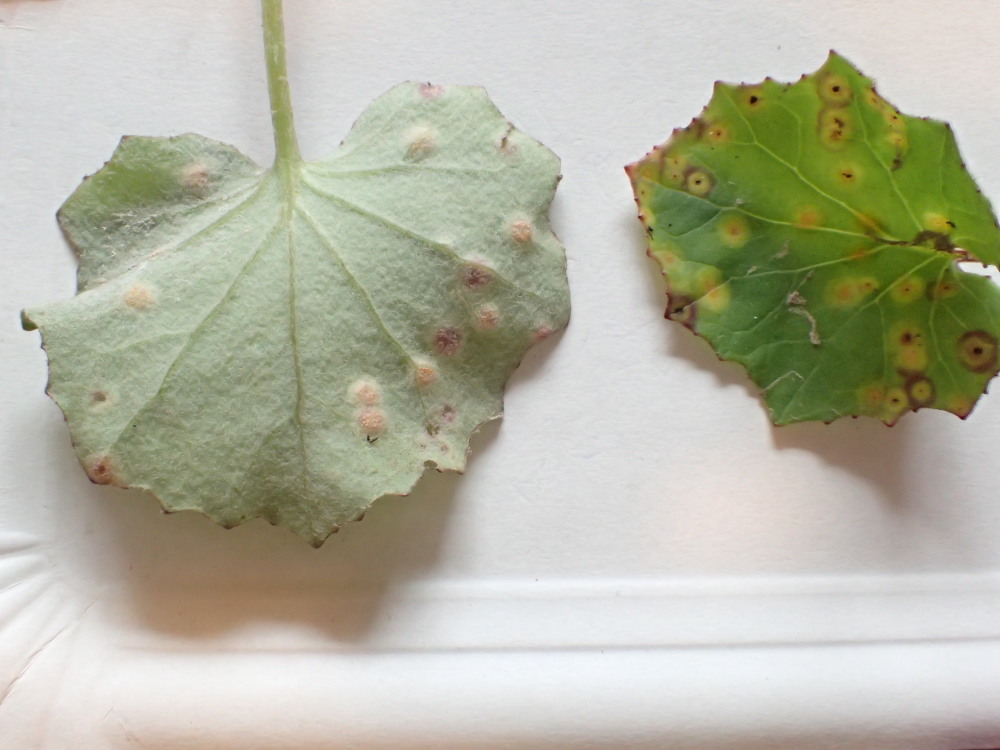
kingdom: Fungi
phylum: Basidiomycota
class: Pucciniomycetes
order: Pucciniales
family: Pucciniaceae
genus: Puccinia
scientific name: Puccinia poarum
